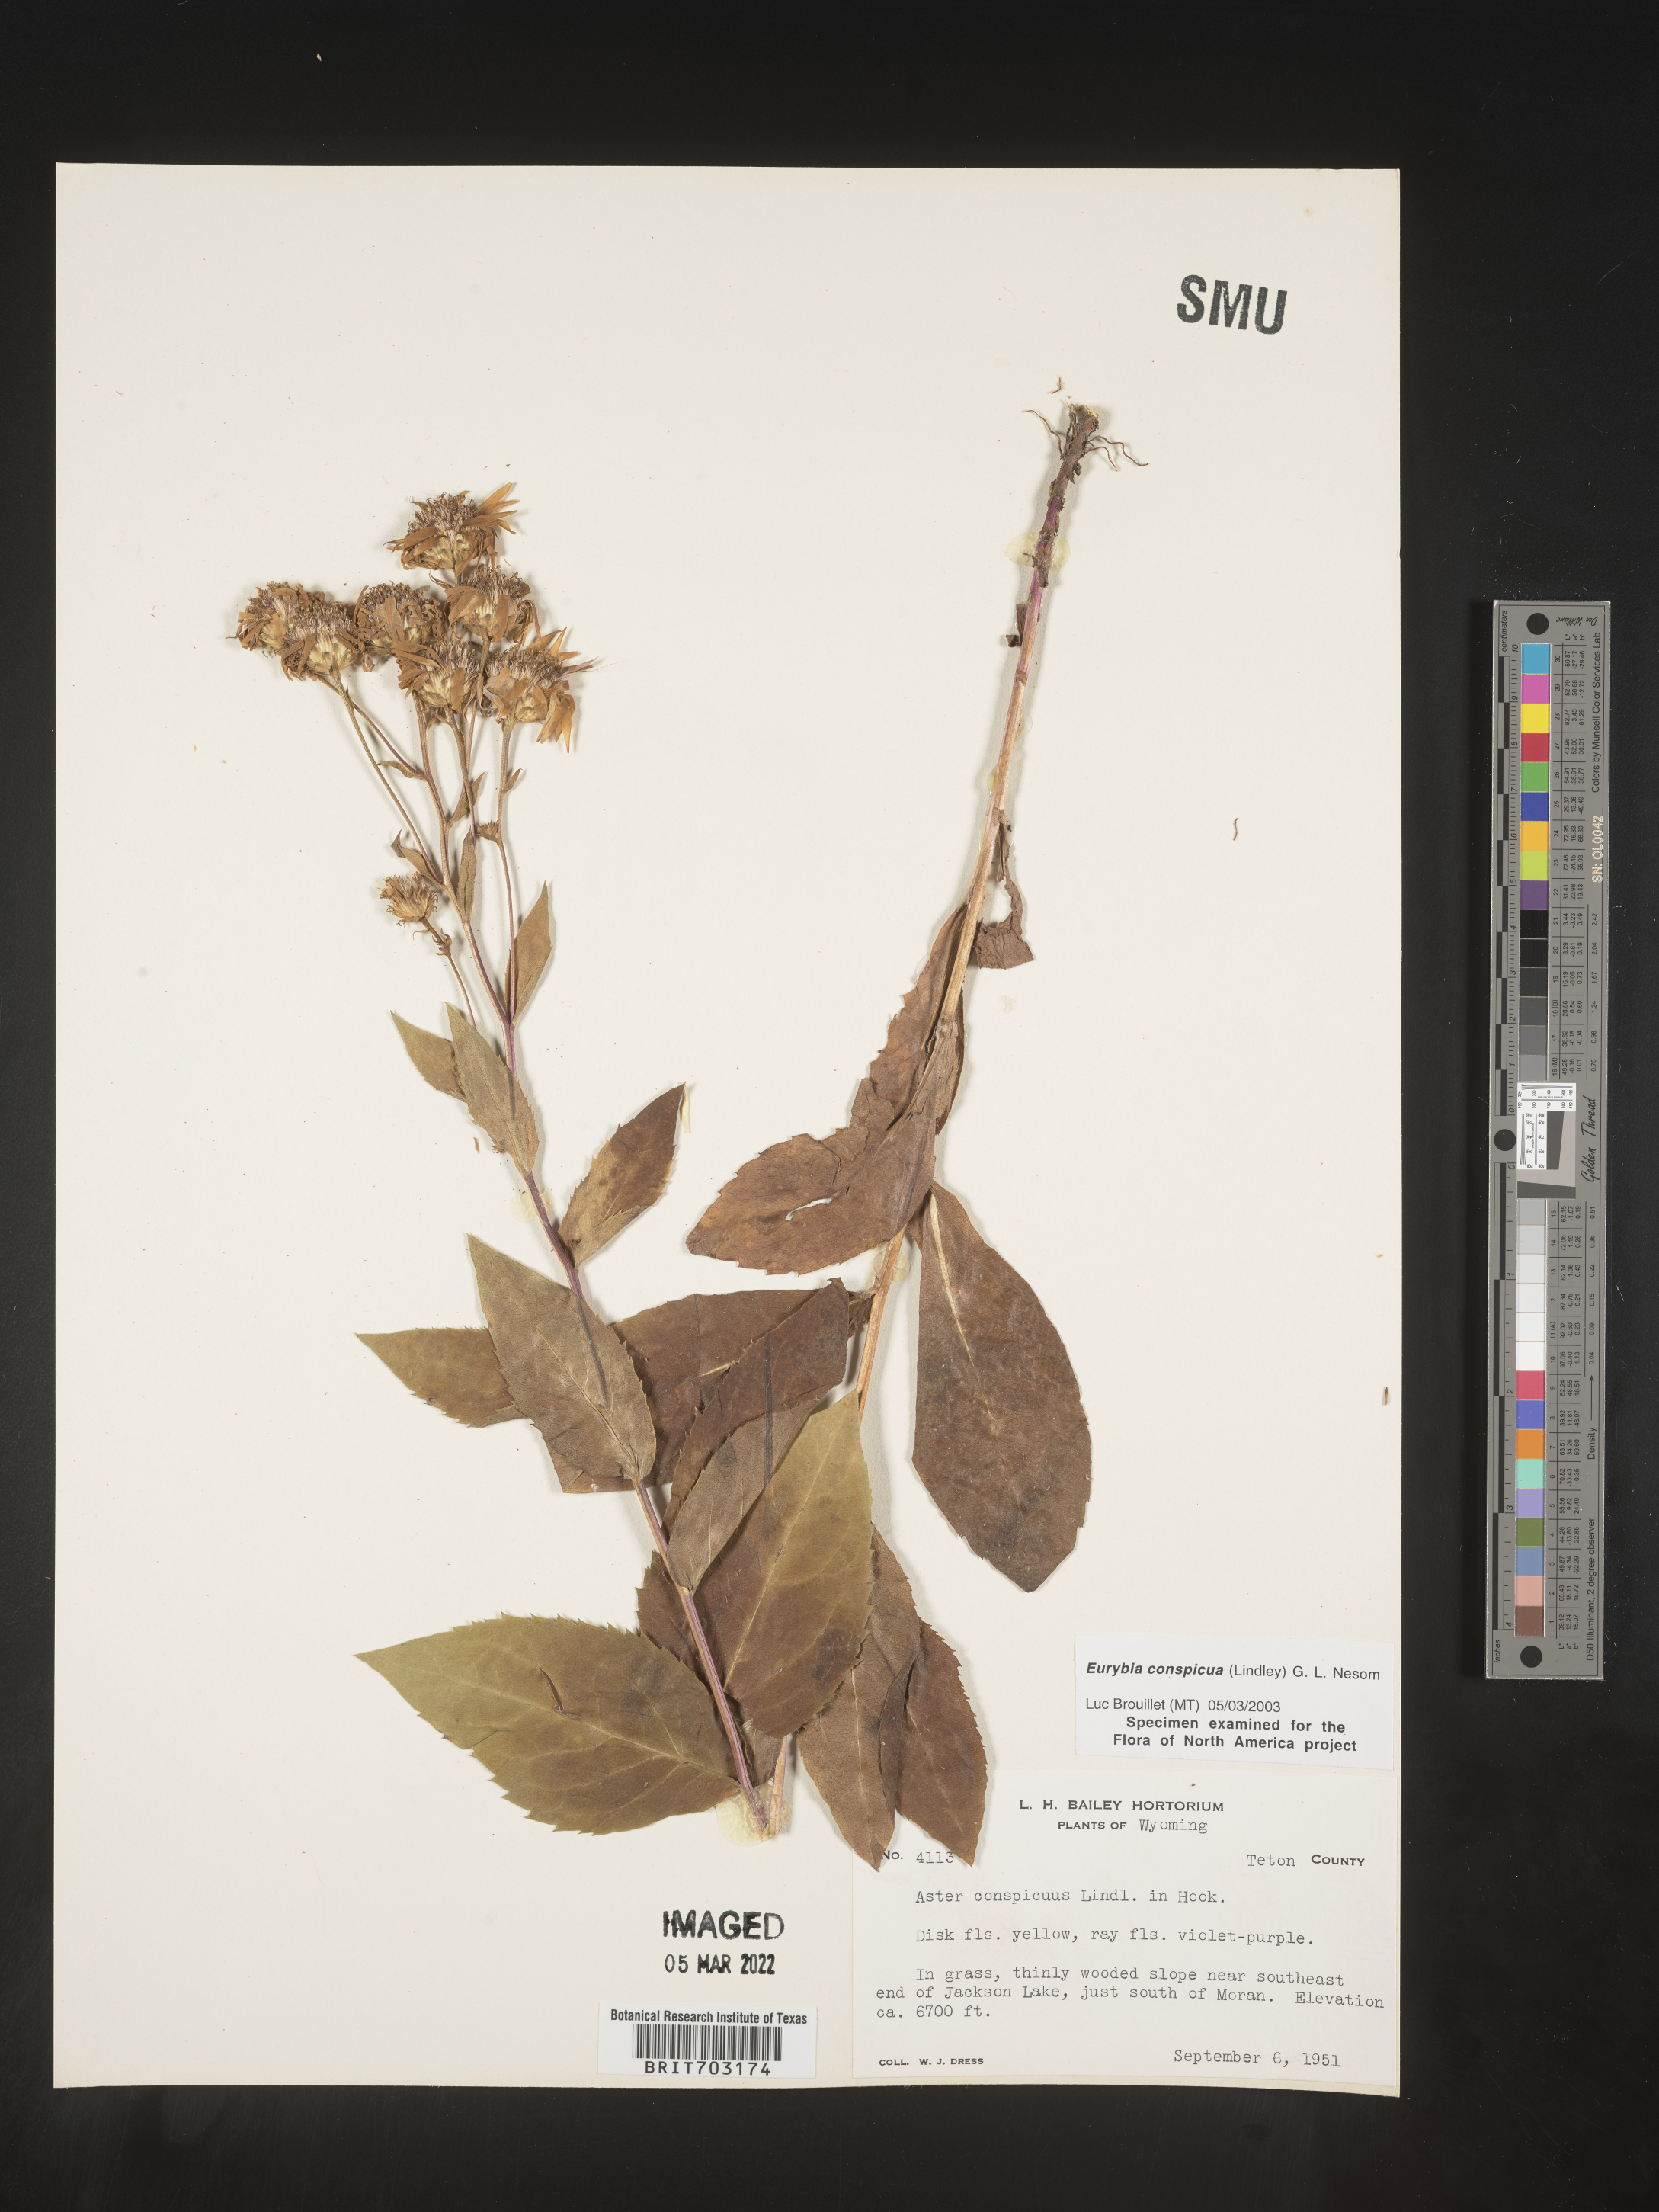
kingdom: Plantae
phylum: Tracheophyta
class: Magnoliopsida
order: Asterales
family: Asteraceae
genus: Eurybia
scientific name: Eurybia conspicua
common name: Showy aster
